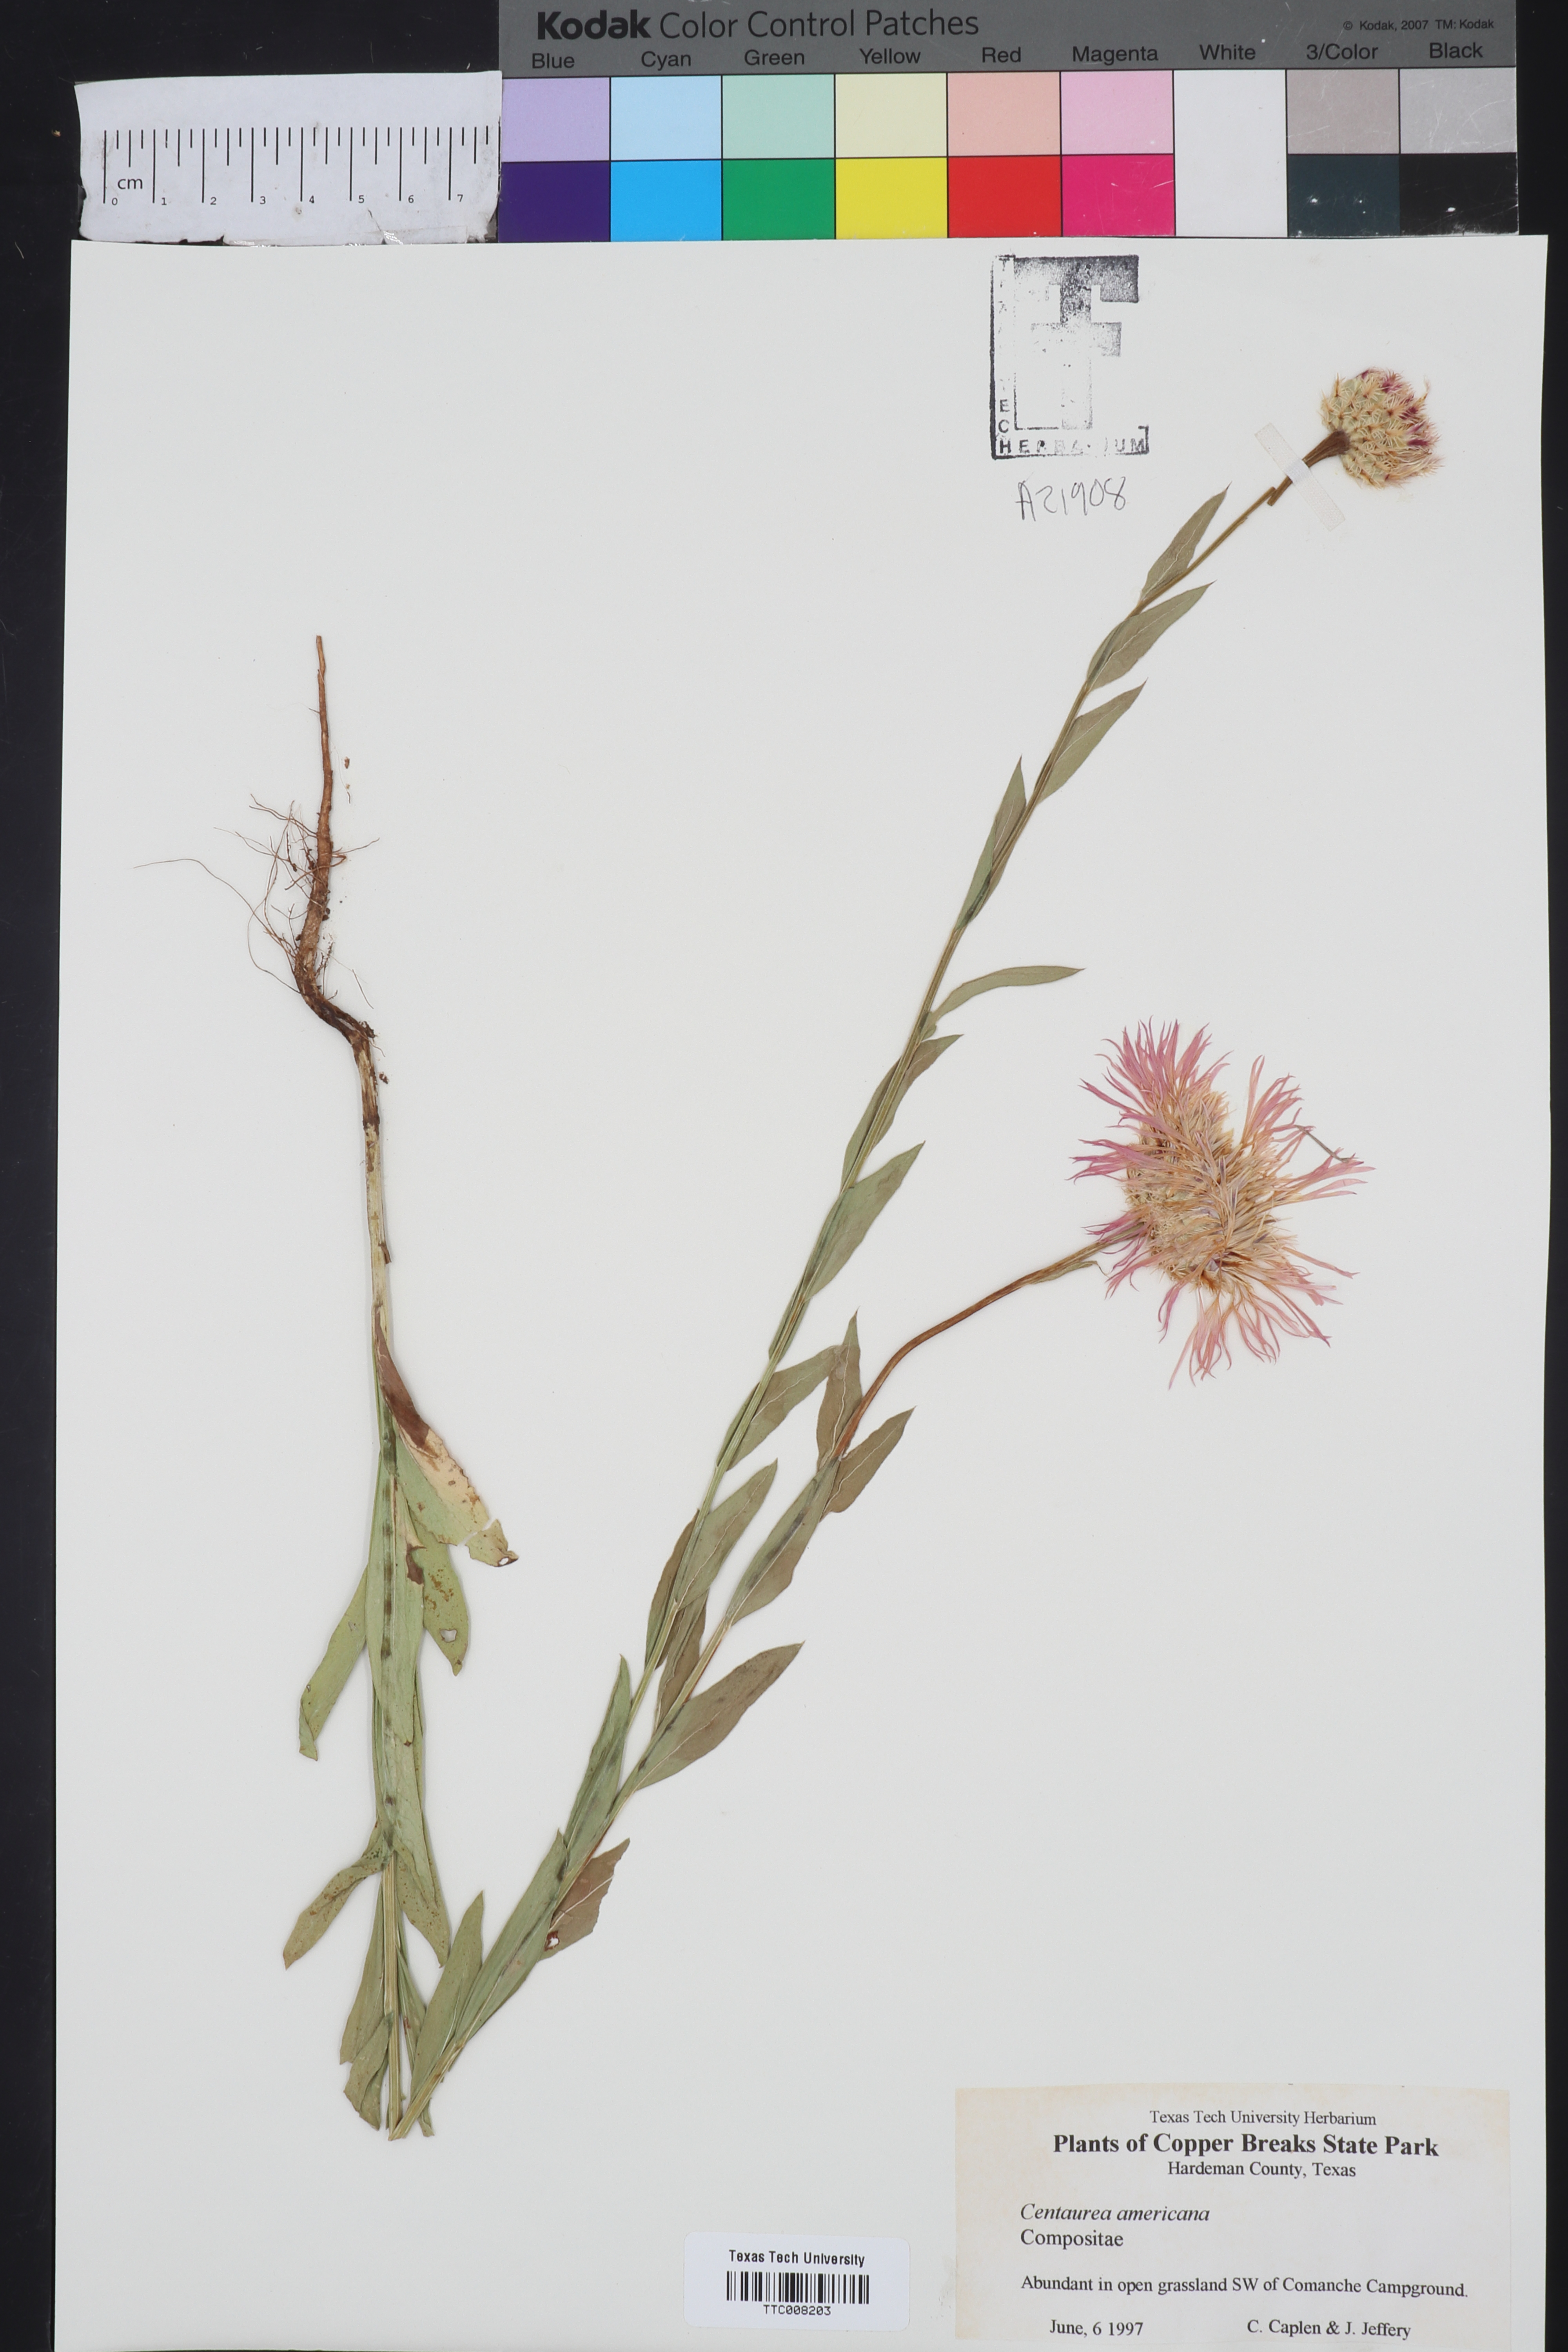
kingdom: Plantae
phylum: Tracheophyta
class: Magnoliopsida
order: Asterales
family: Asteraceae
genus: Plectocephalus
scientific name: Plectocephalus americanus
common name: American basket-flower
